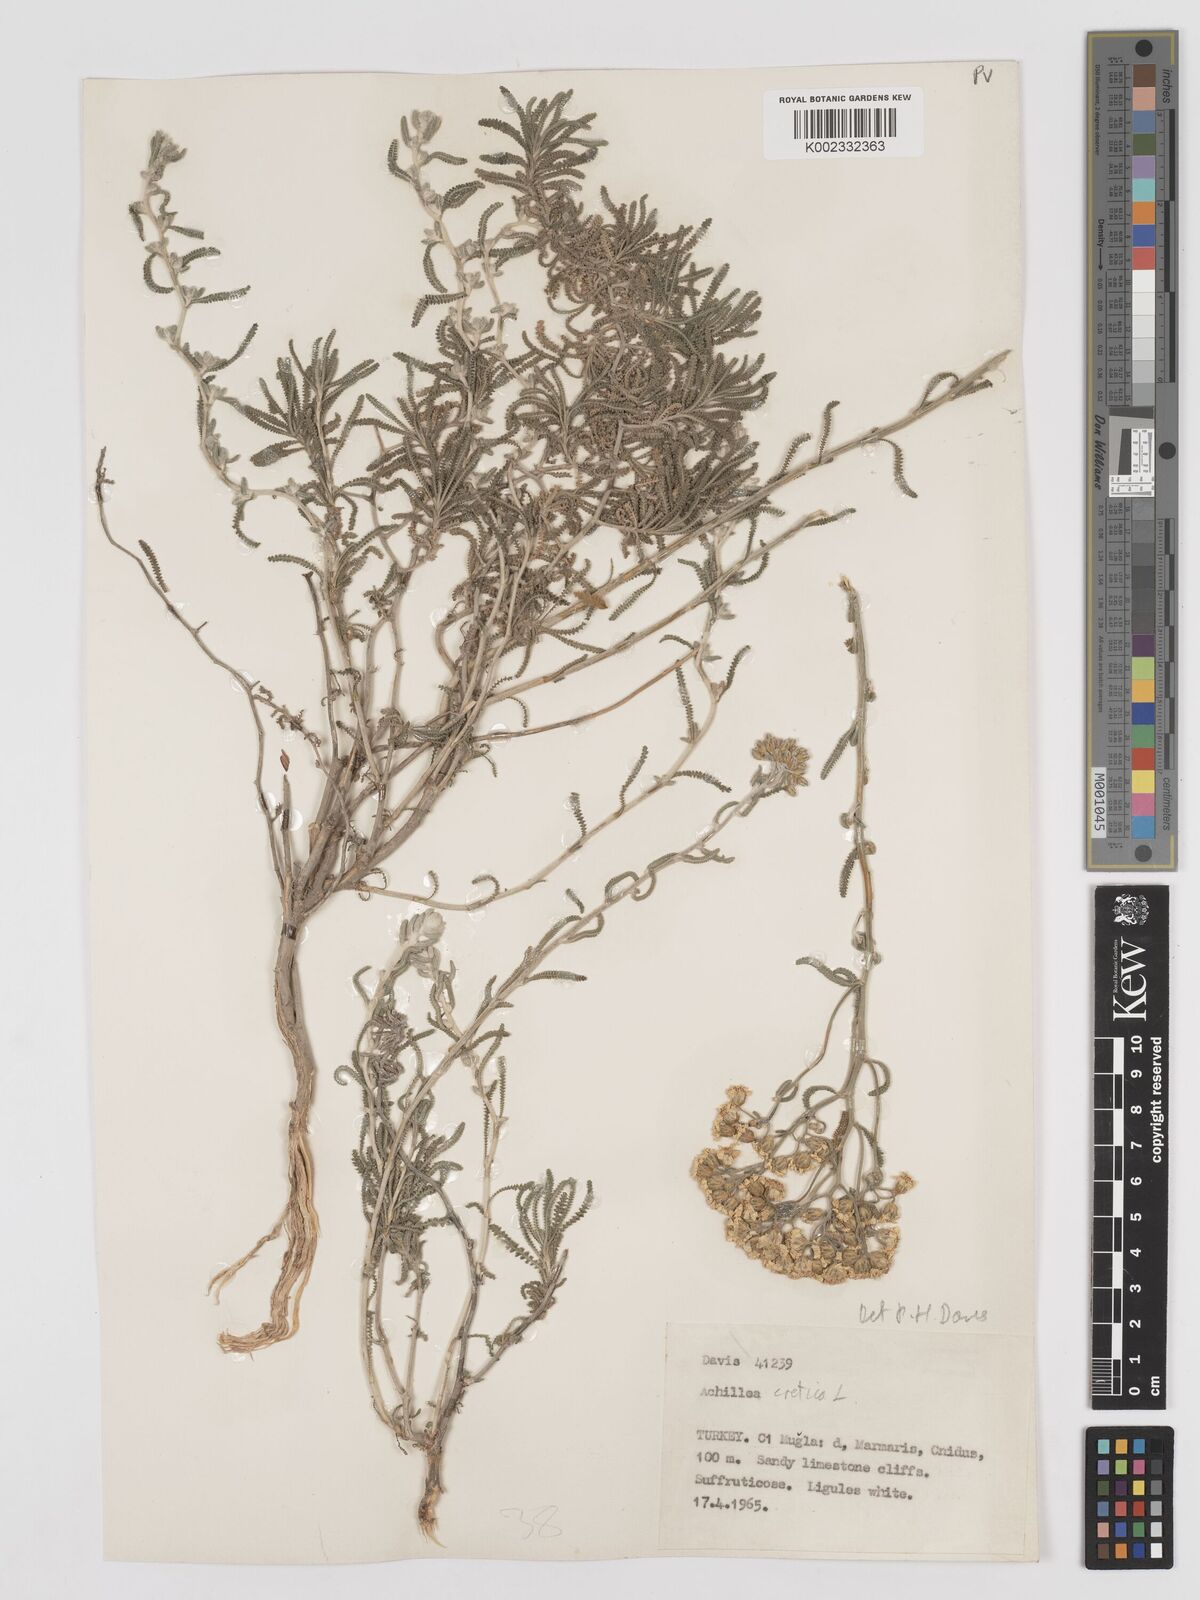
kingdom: Plantae
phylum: Tracheophyta
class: Magnoliopsida
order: Asterales
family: Asteraceae
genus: Achillea
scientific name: Achillea cretica
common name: Chamomile-leaved lavender-cotton
